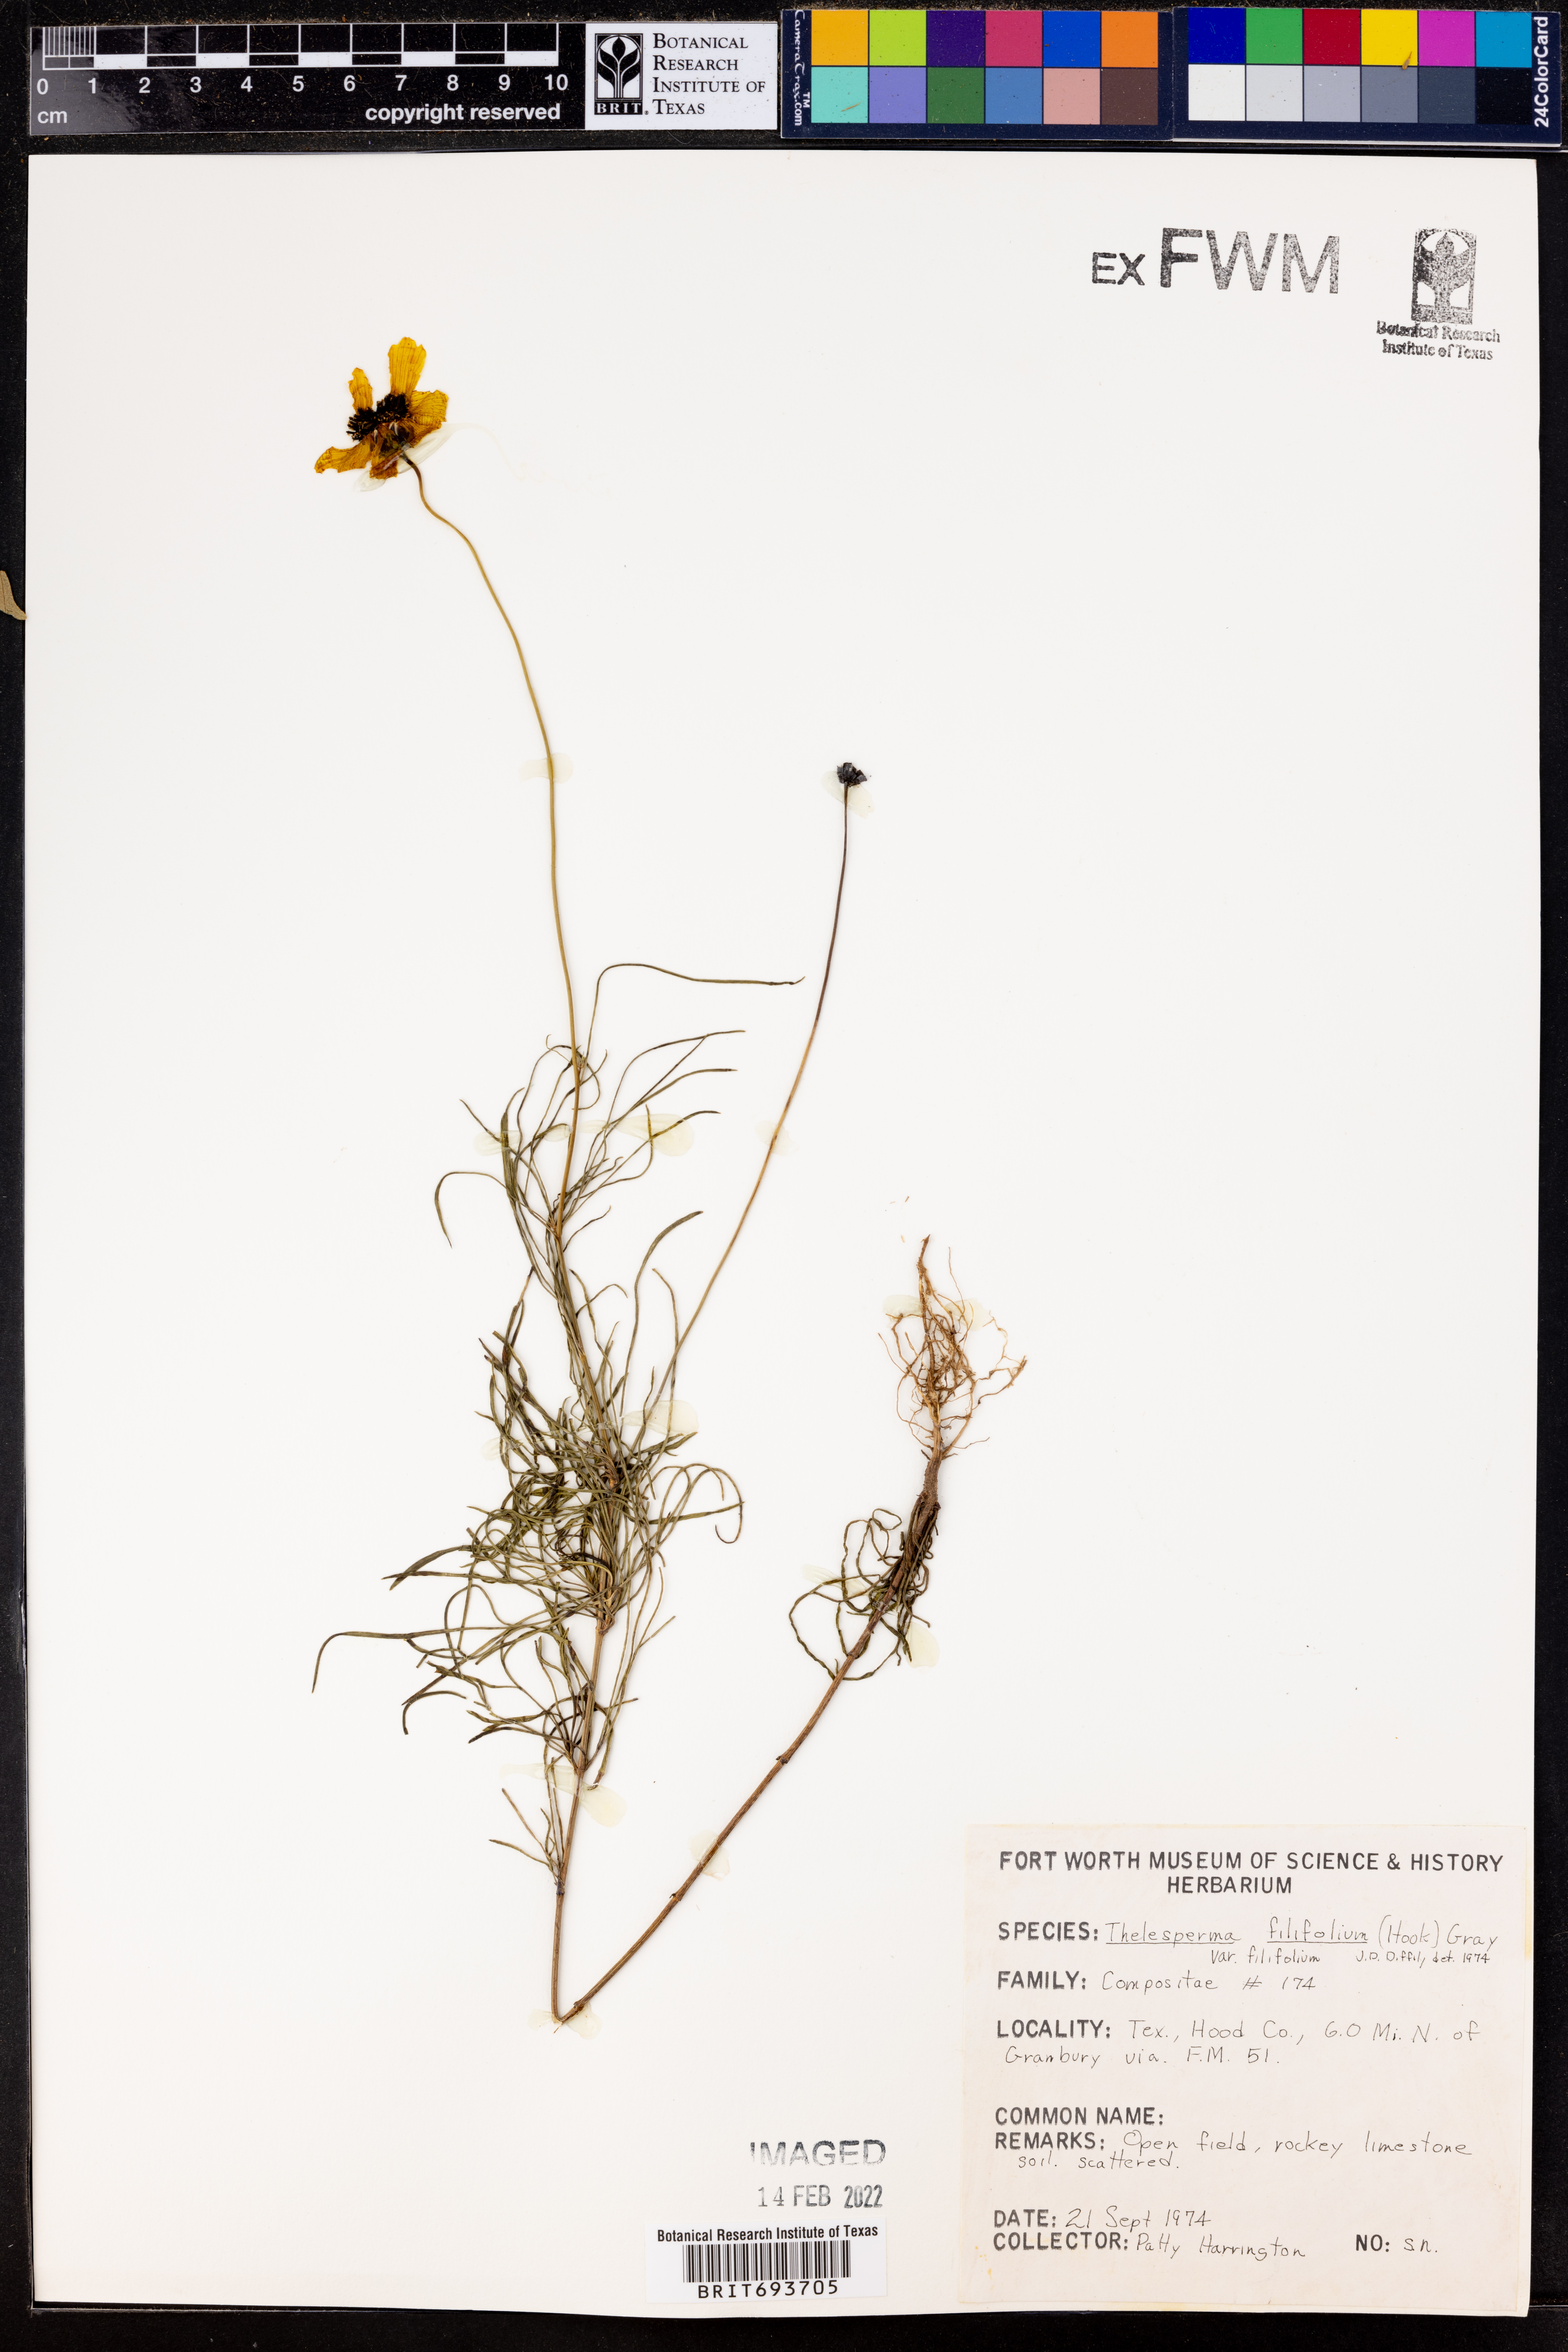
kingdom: Plantae
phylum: Tracheophyta
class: Magnoliopsida
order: Asterales
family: Asteraceae
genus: Thelesperma
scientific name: Thelesperma filifolium
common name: Stiff greenthread
